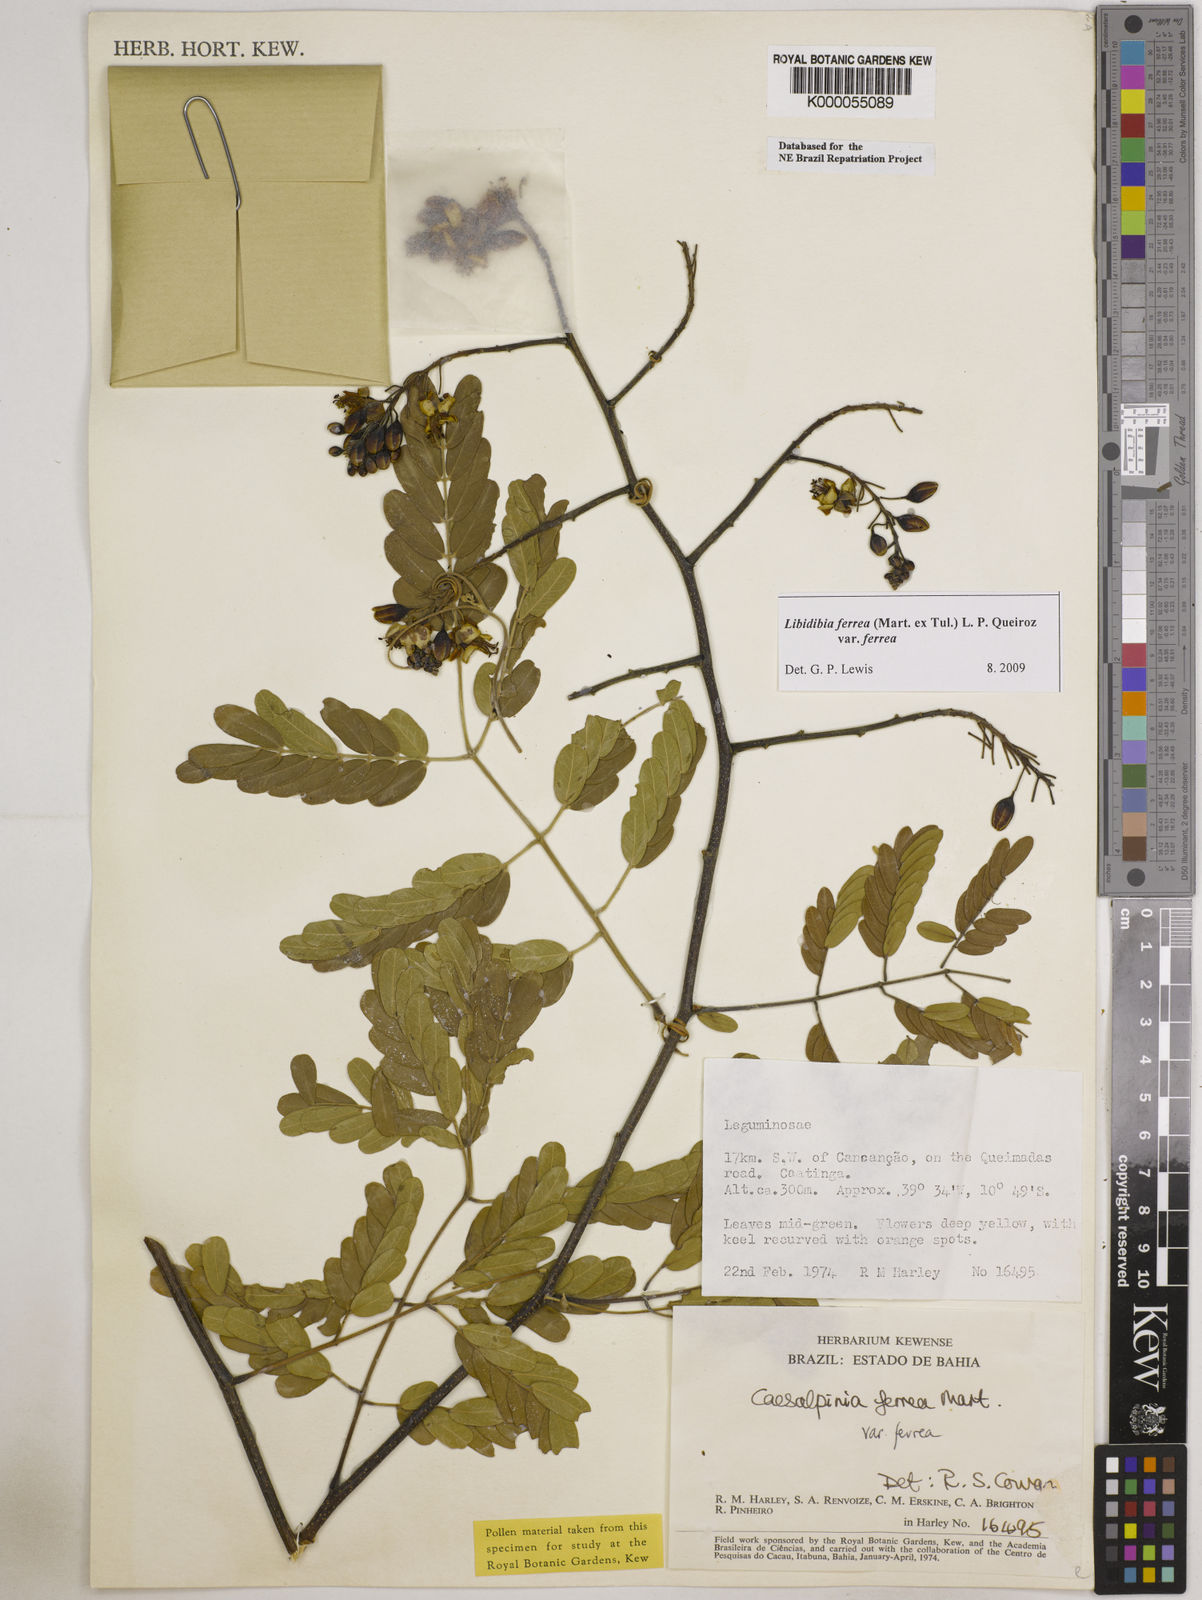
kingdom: Plantae
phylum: Tracheophyta
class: Magnoliopsida
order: Fabales
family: Fabaceae
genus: Libidibia
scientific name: Libidibia ferrea
